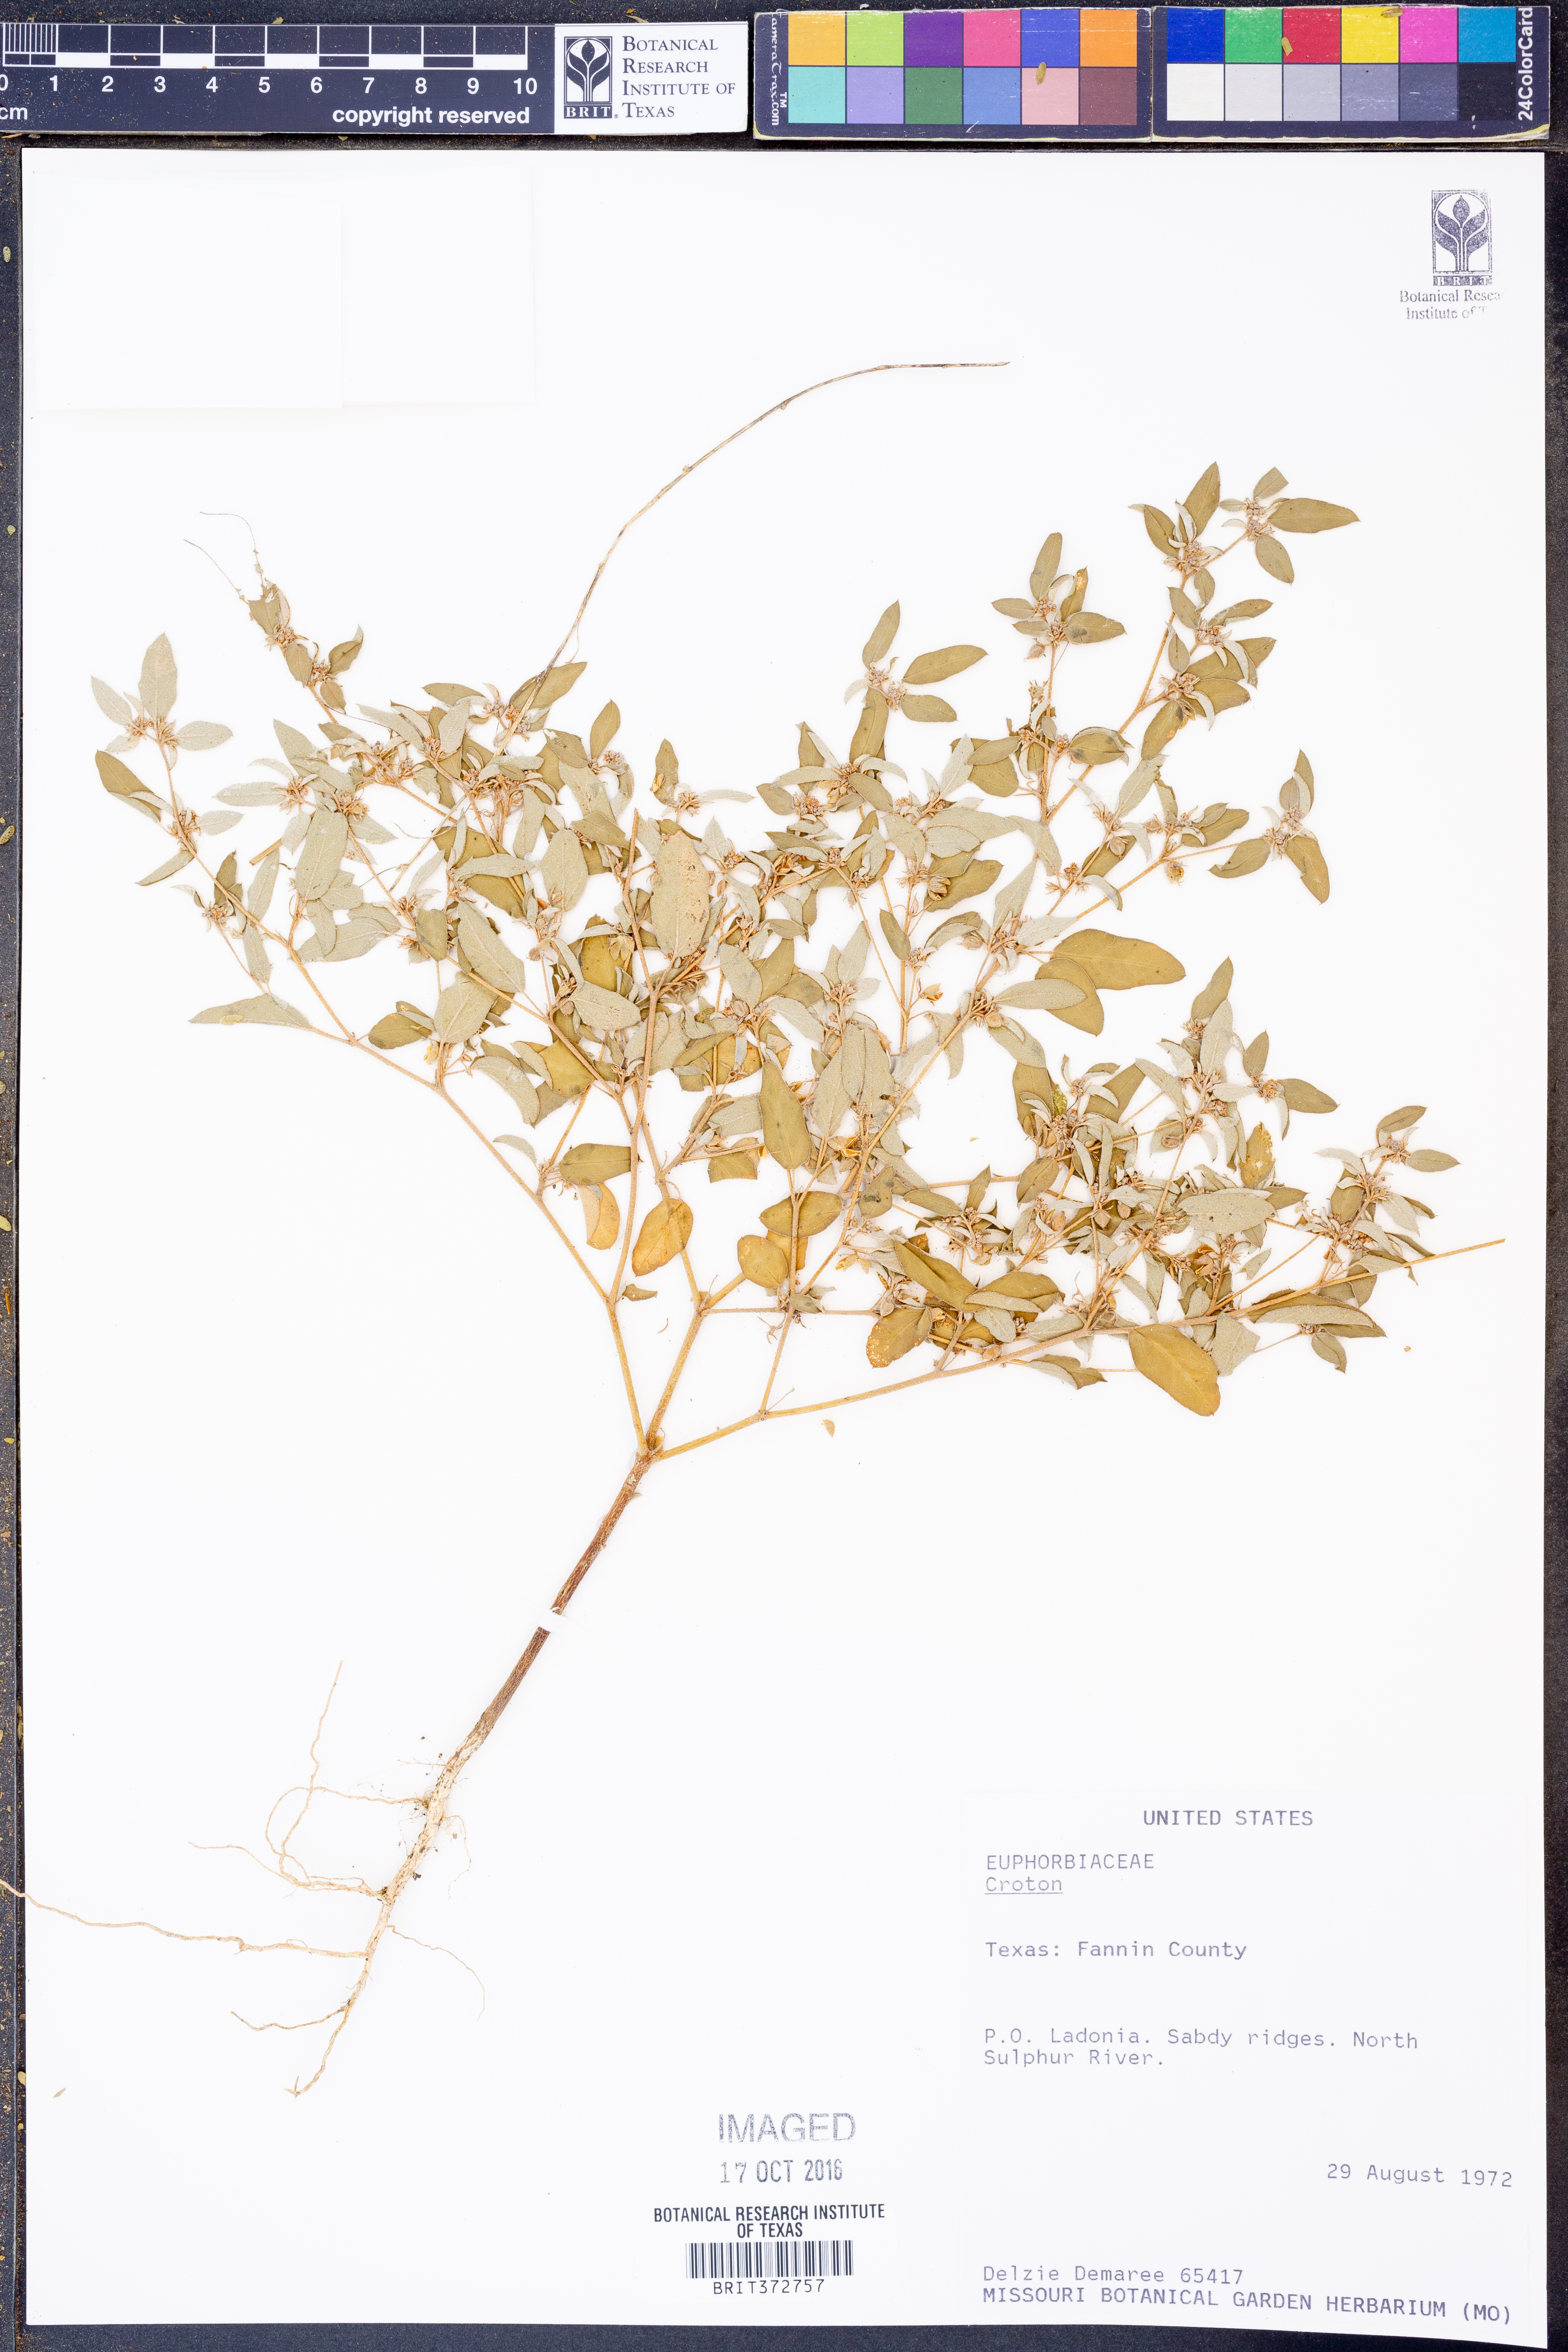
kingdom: Plantae
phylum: Tracheophyta
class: Magnoliopsida
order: Malpighiales
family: Euphorbiaceae
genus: Croton
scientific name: Croton
